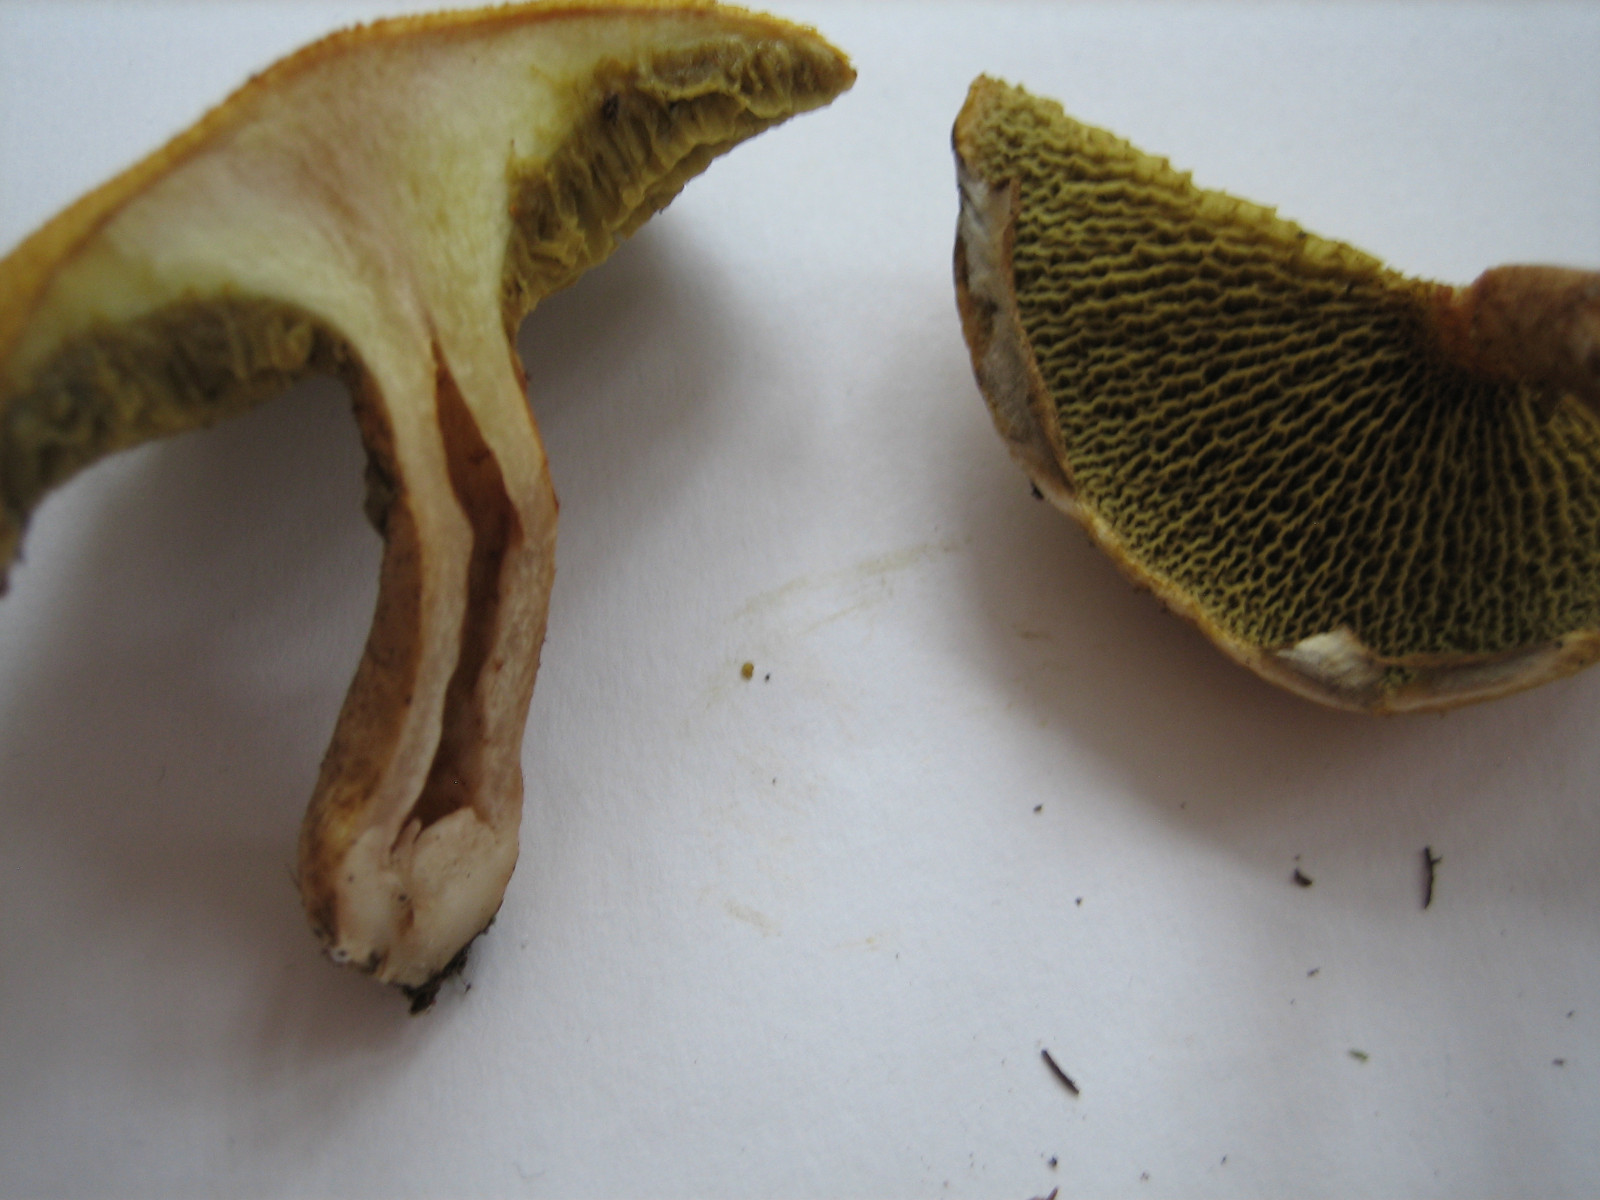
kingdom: Fungi
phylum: Basidiomycota
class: Agaricomycetes
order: Boletales
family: Suillaceae
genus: Suillus
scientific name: Suillus cavipes
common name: hulstokket slimrørhat, gul form
